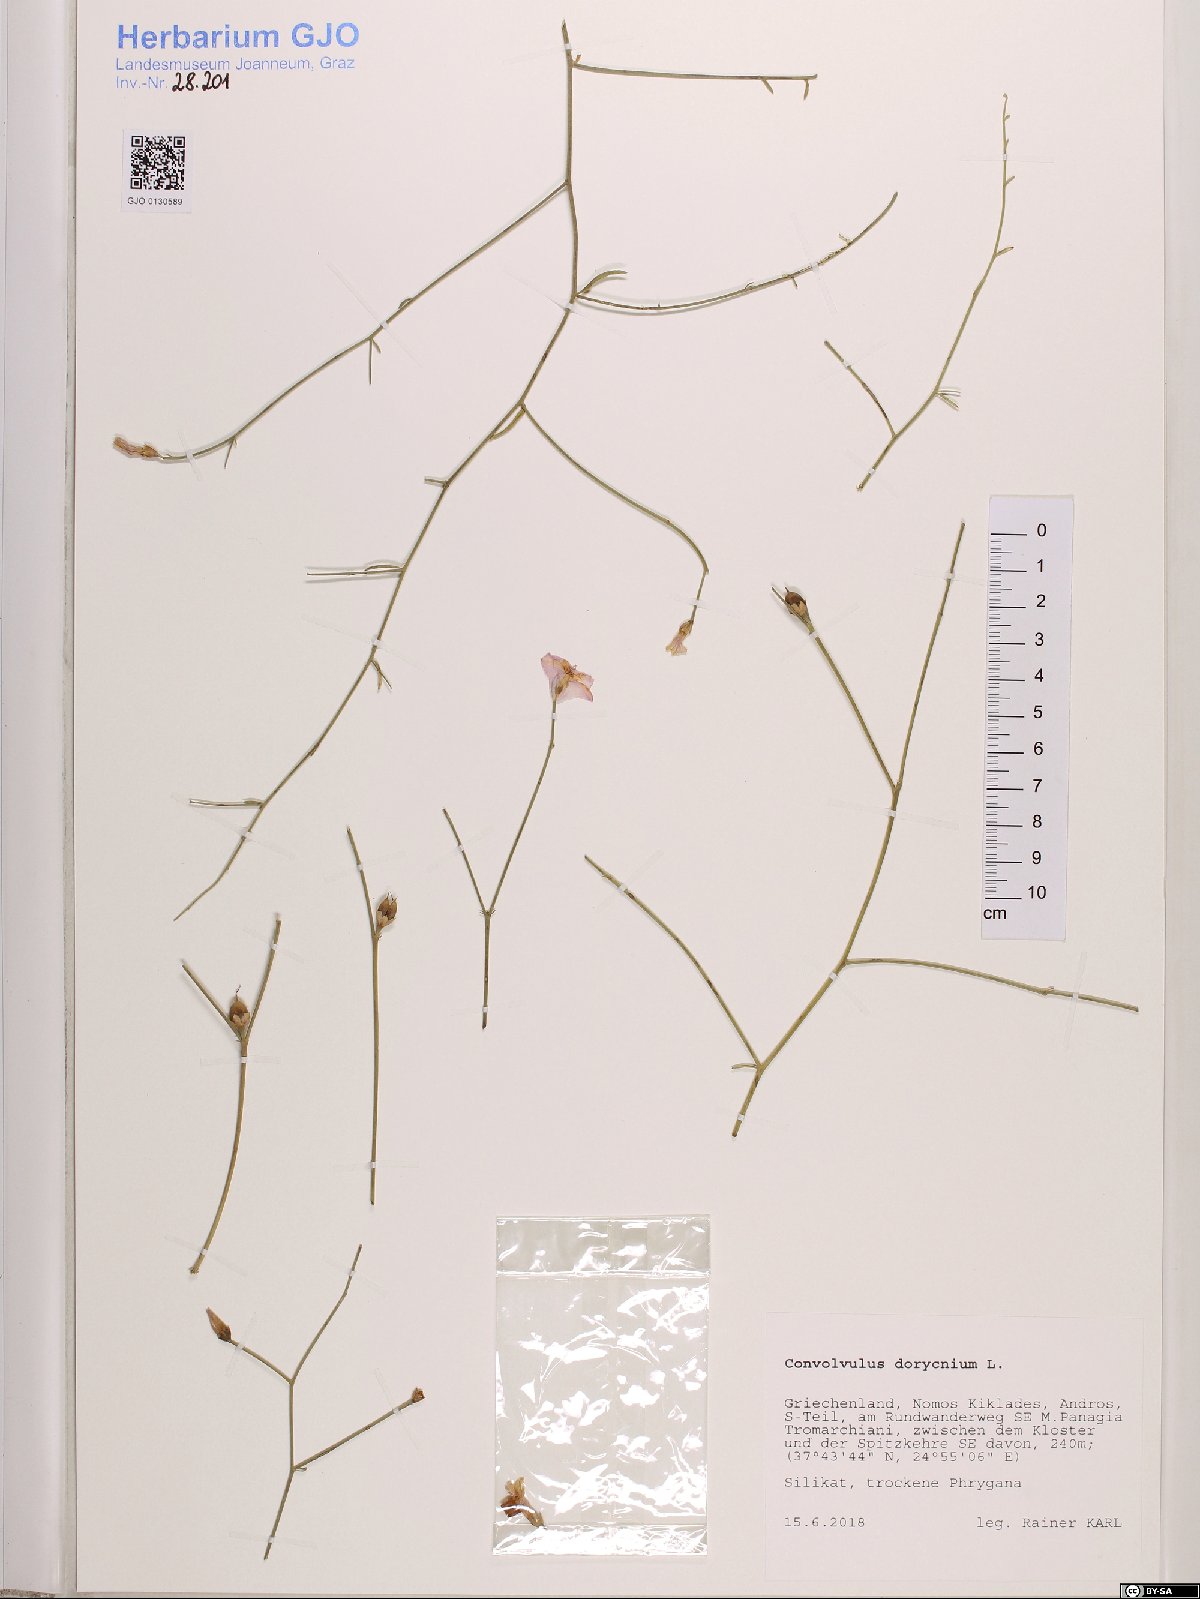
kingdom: Plantae
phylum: Tracheophyta
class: Magnoliopsida
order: Solanales
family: Convolvulaceae
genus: Convolvulus
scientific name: Convolvulus dorycnium
